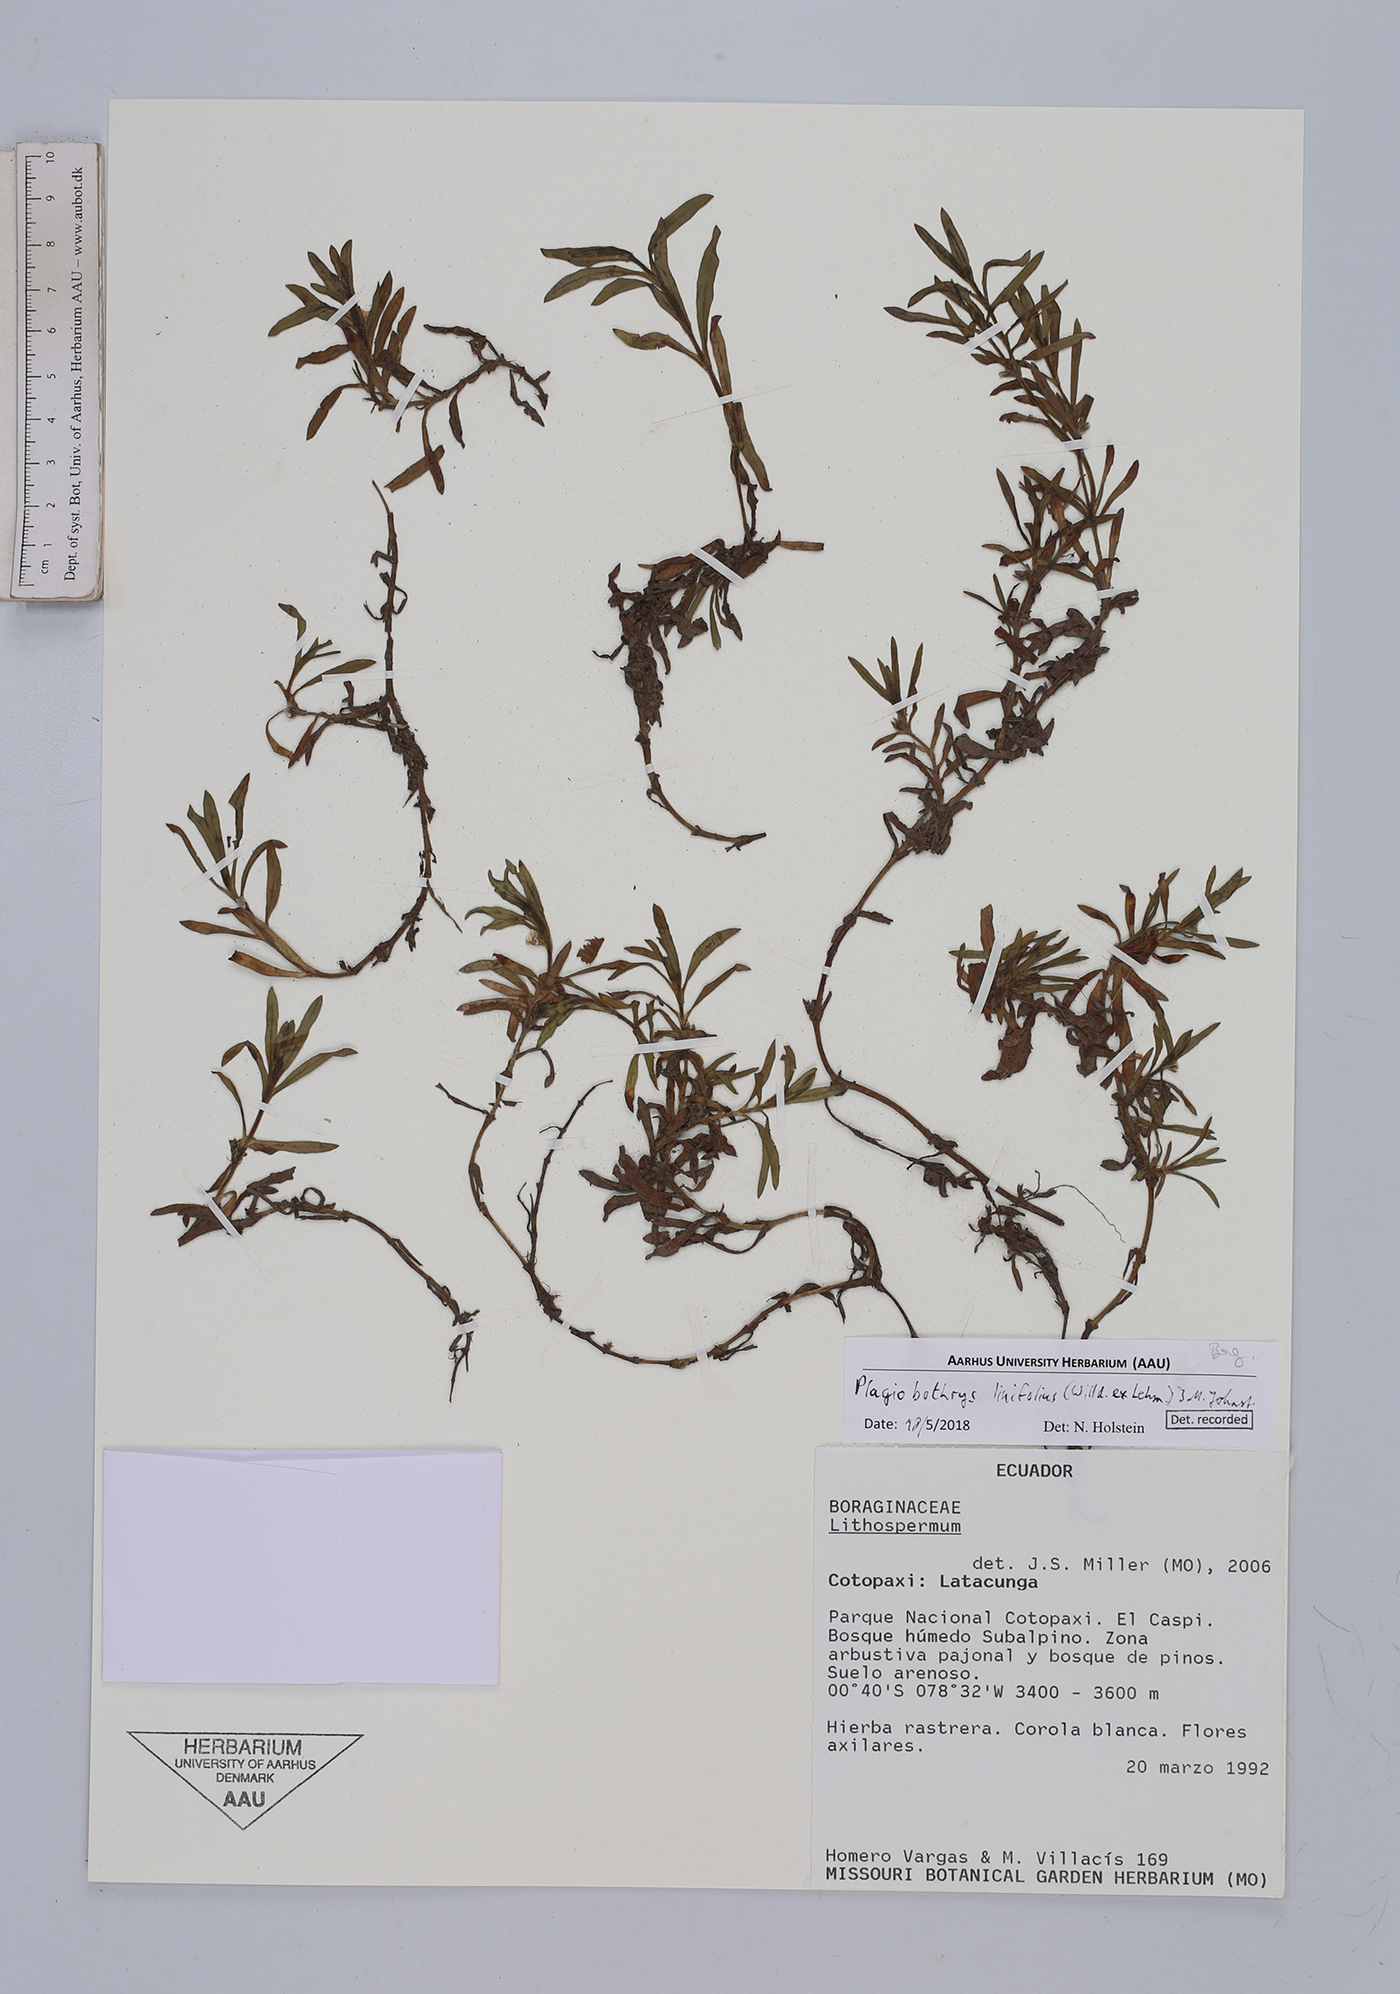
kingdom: Plantae
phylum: Tracheophyta
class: Magnoliopsida
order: Boraginales
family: Boraginaceae
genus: Plagiobothrys
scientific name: Plagiobothrys linifolius
